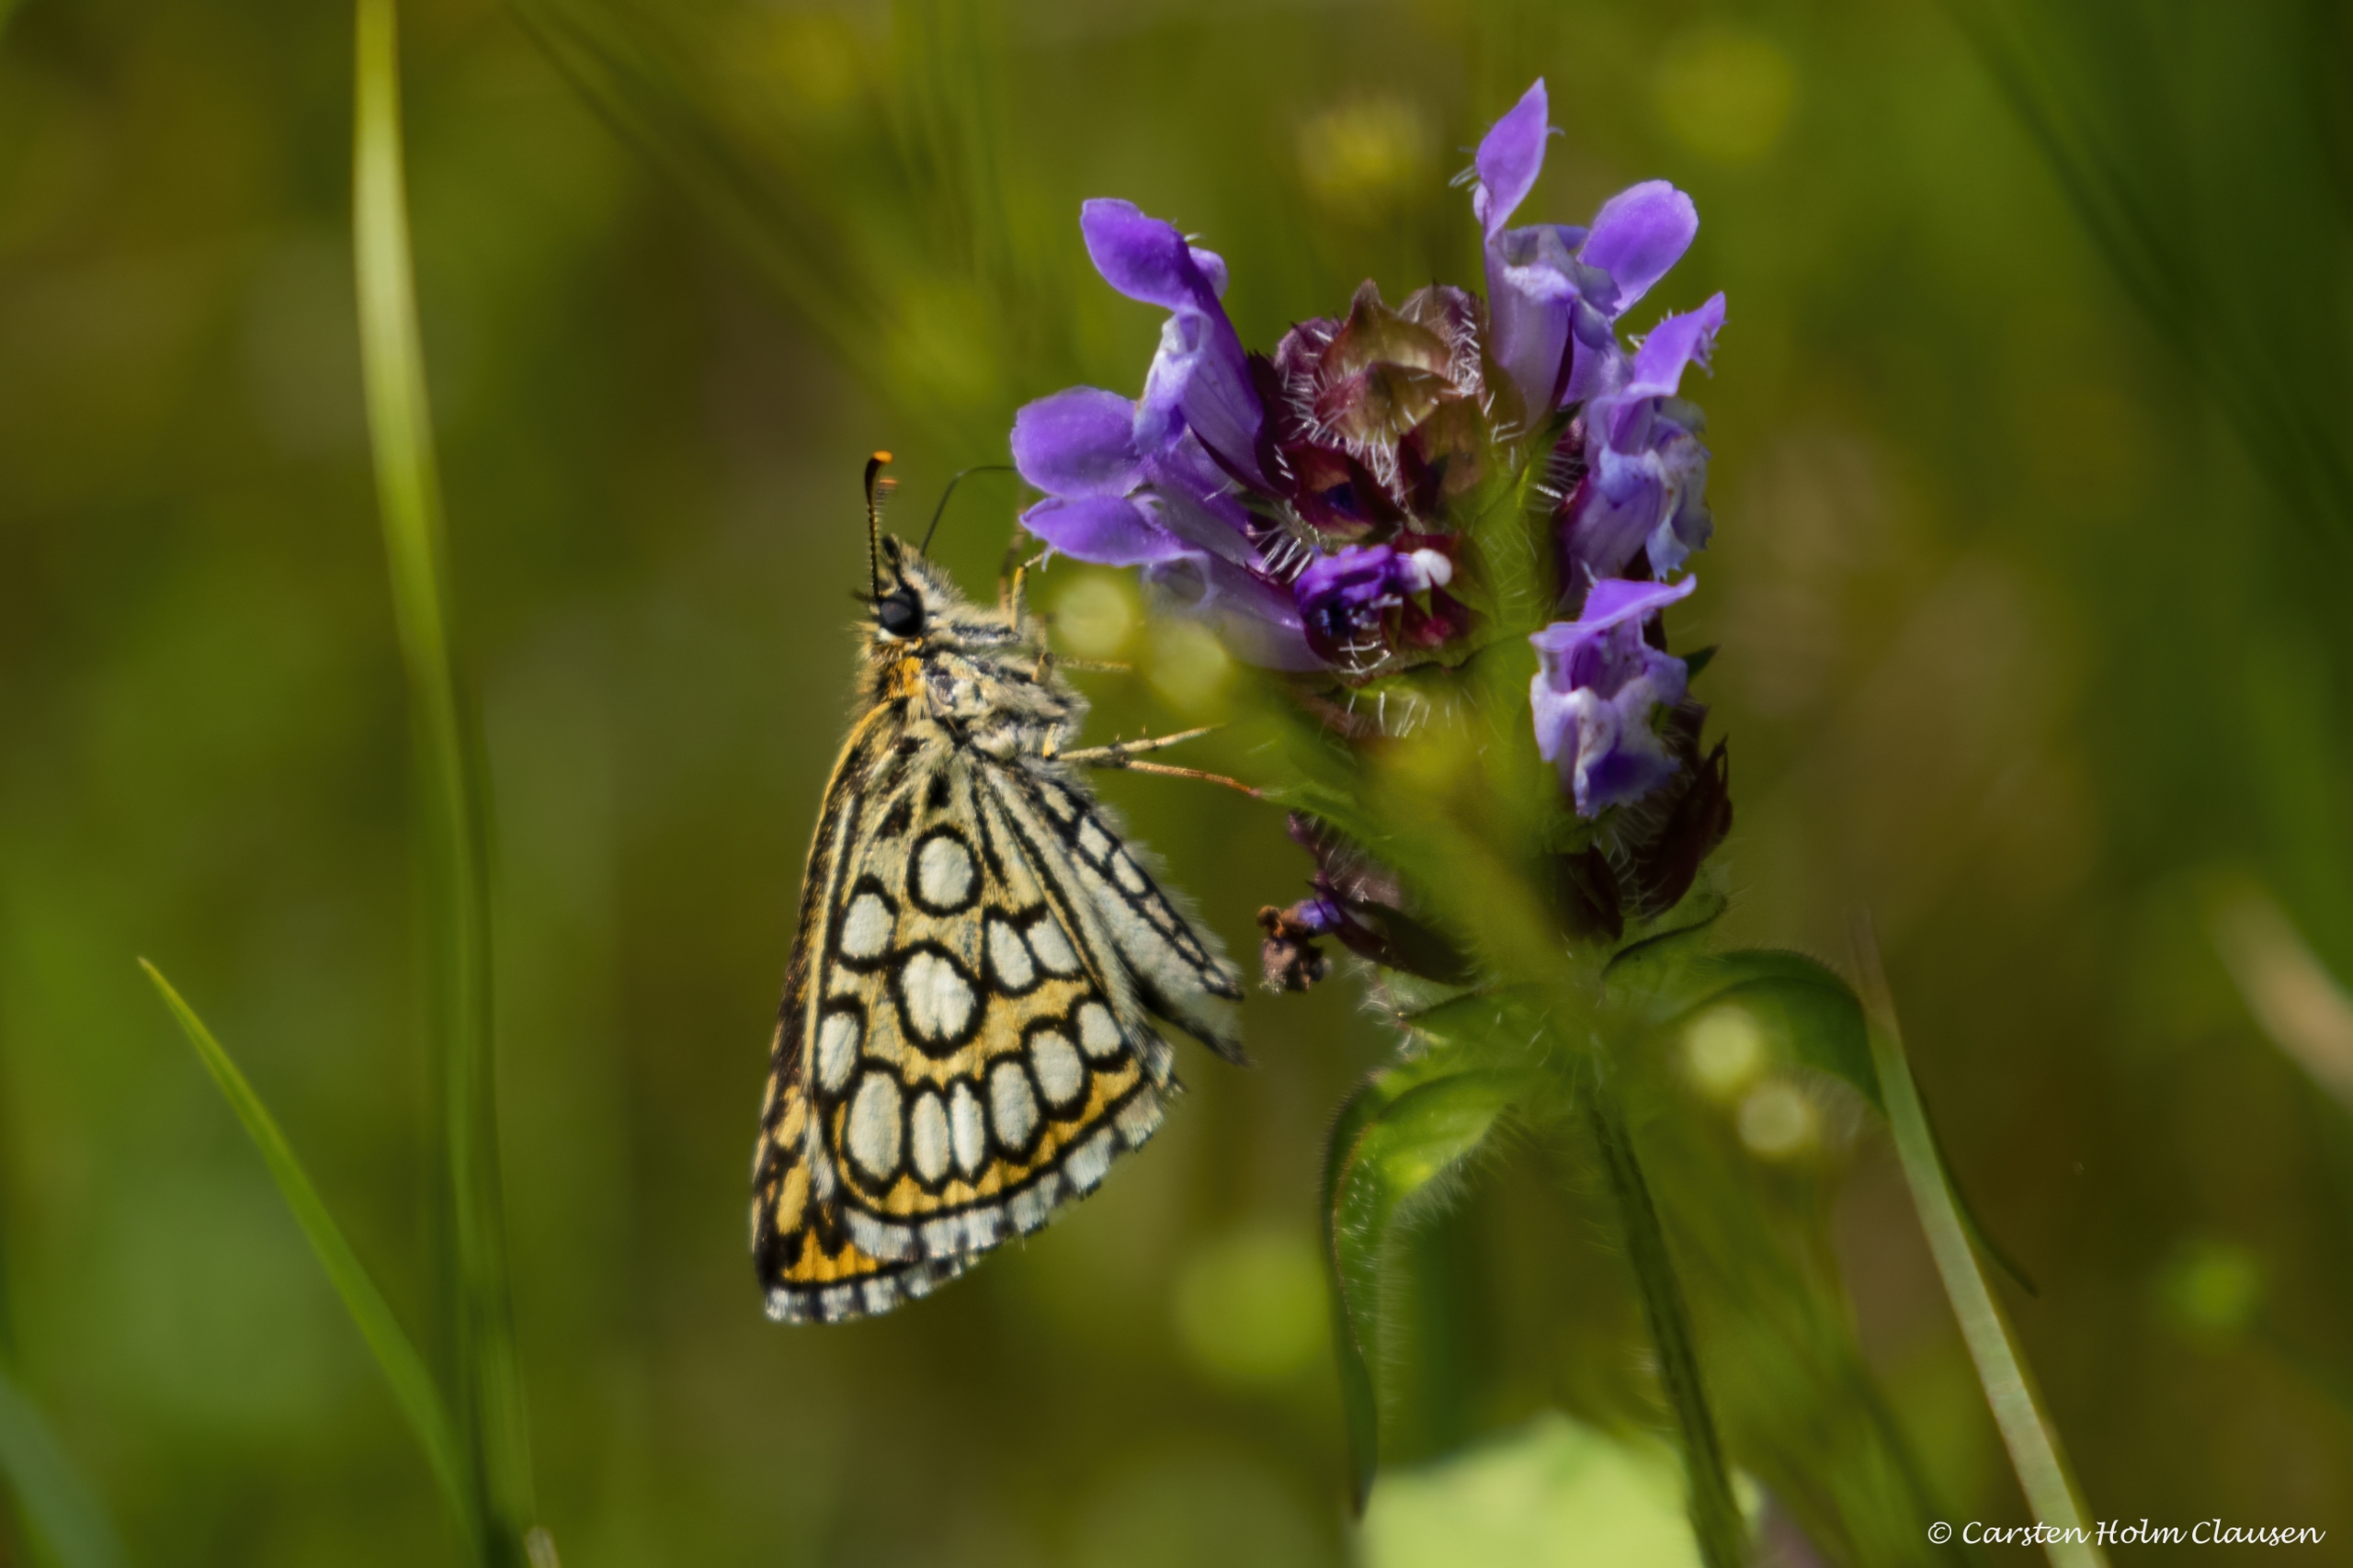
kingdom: Animalia
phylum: Arthropoda
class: Insecta
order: Lepidoptera
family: Hesperiidae
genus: Heteropterus
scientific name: Heteropterus morpheus
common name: Spejlbredpande
